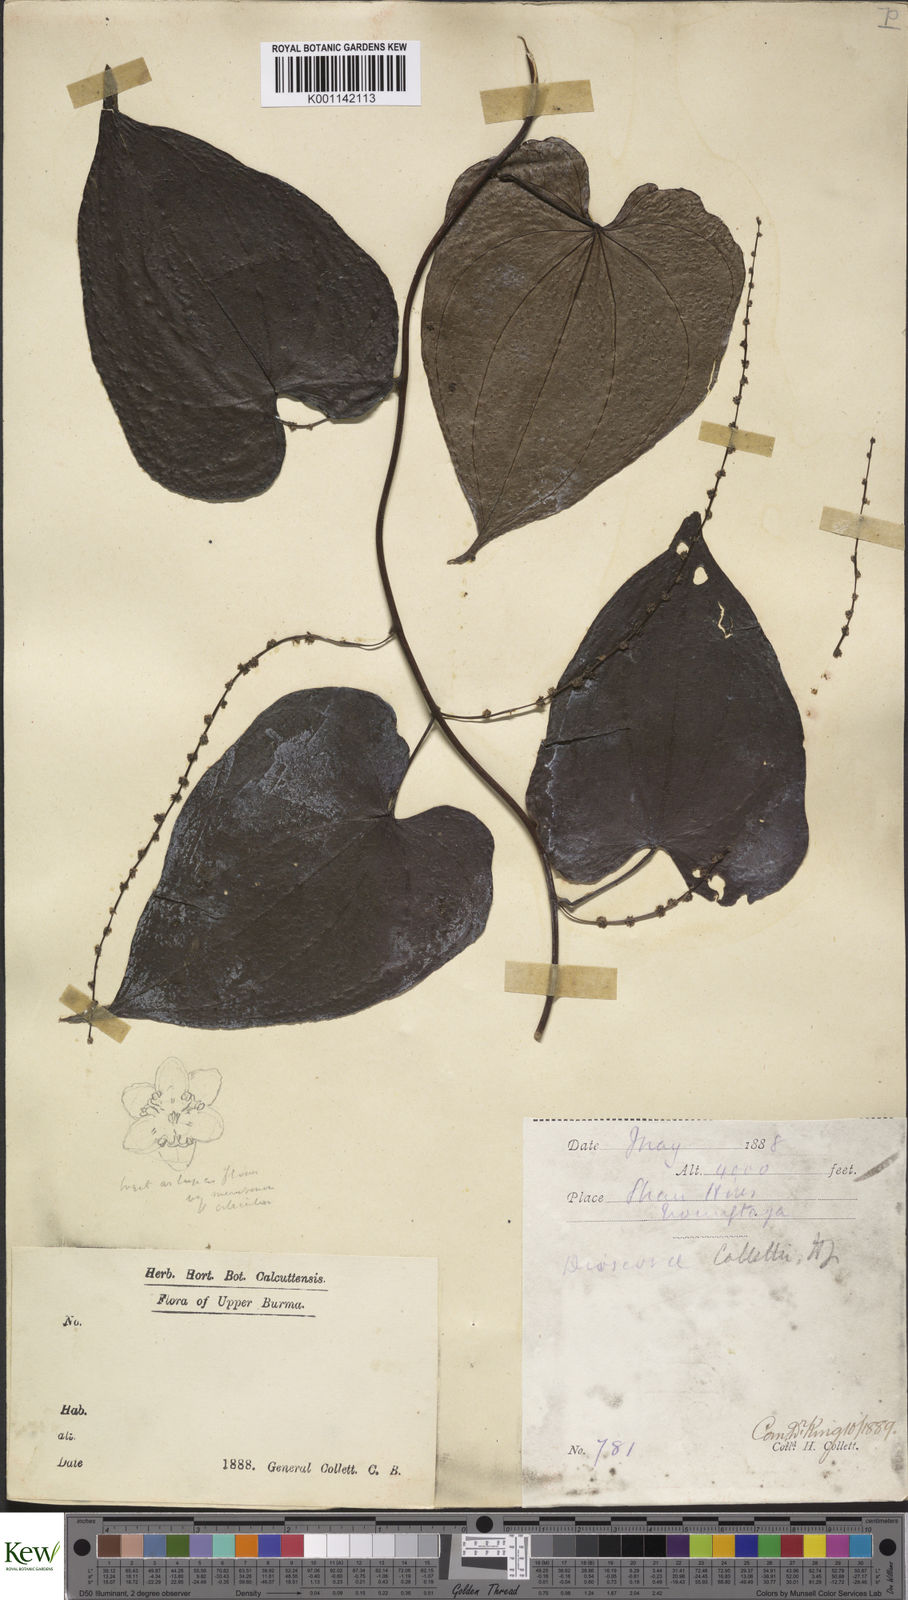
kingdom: Plantae
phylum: Tracheophyta
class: Liliopsida
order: Dioscoreales
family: Dioscoreaceae
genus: Dioscorea
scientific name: Dioscorea collettii
